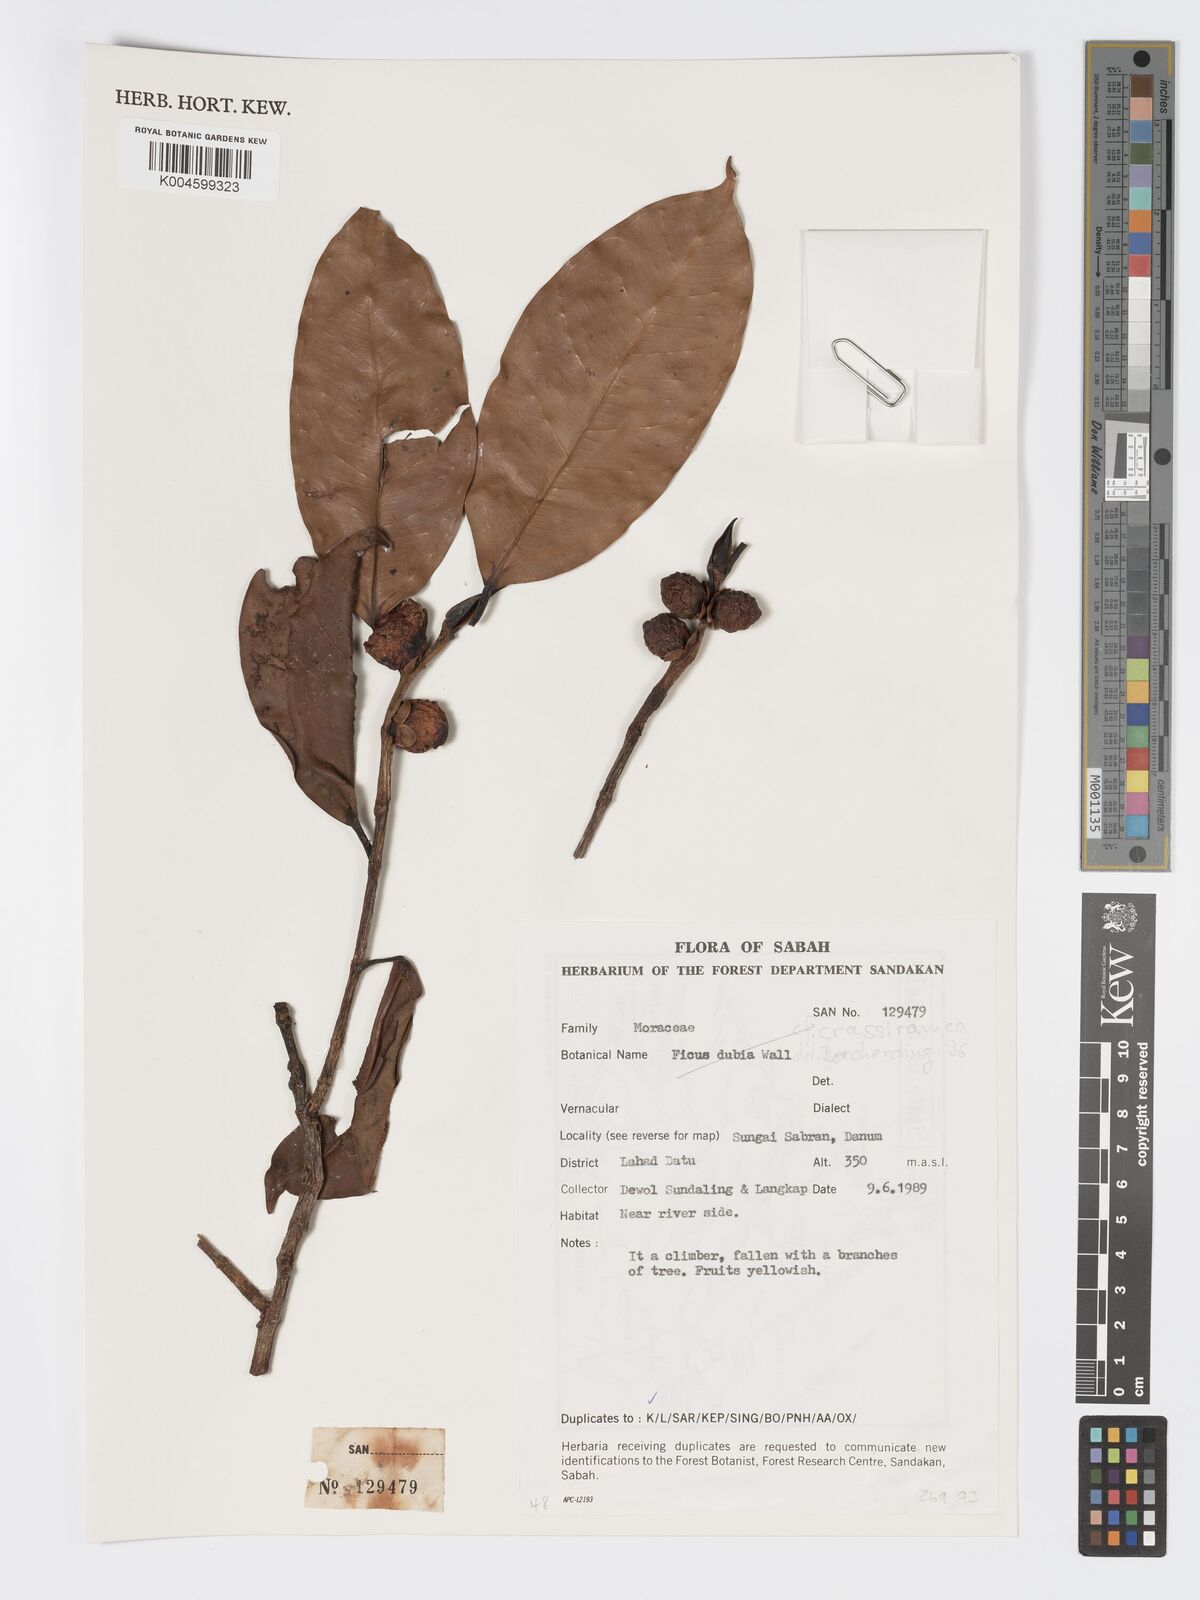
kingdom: Plantae
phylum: Tracheophyta
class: Magnoliopsida
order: Rosales
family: Moraceae
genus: Ficus
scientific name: Ficus crassiramea
